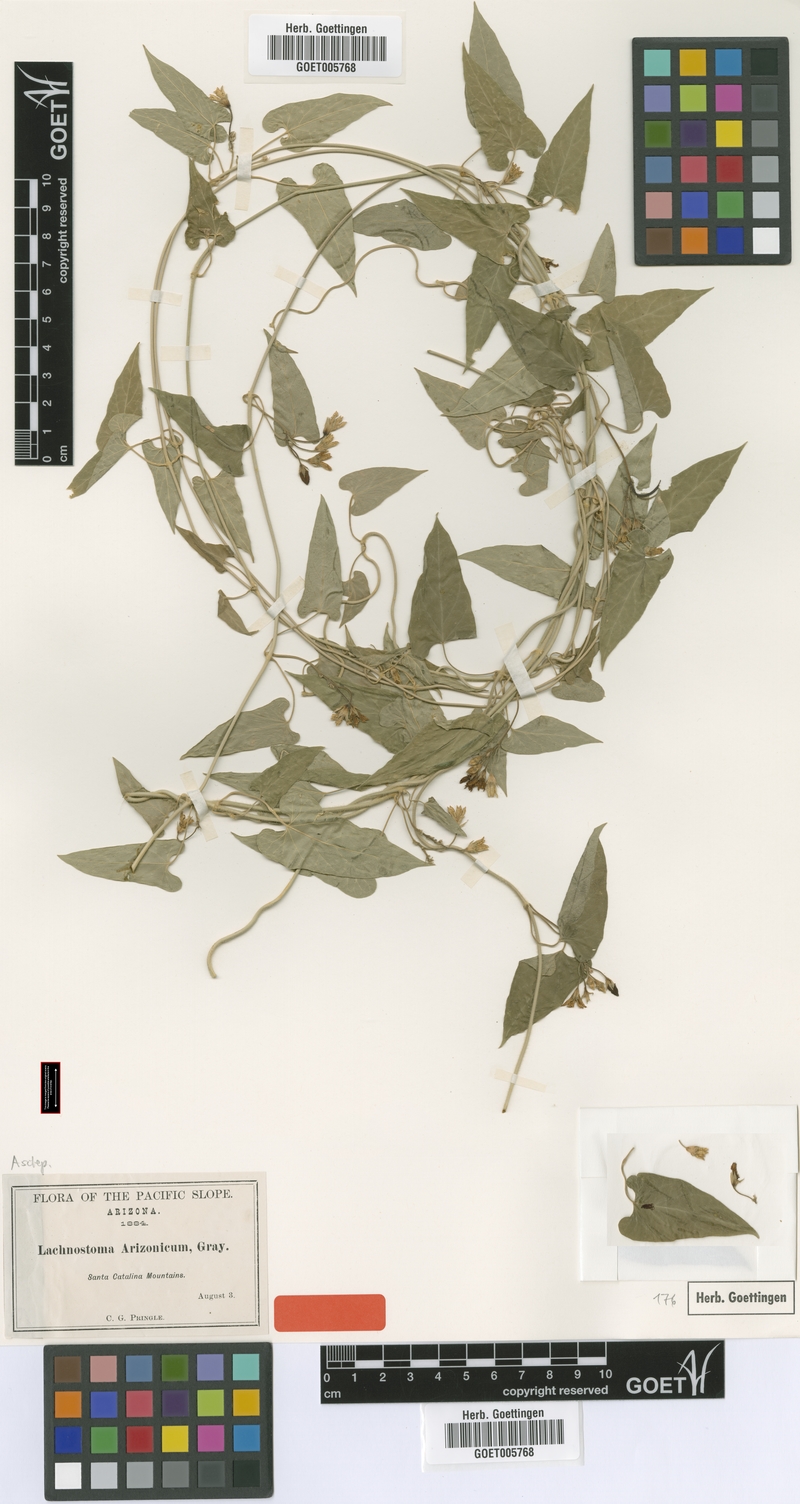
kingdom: Plantae
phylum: Tracheophyta
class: Magnoliopsida
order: Gentianales
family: Apocynaceae
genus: Gonolobus
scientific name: Gonolobus arizonicus
